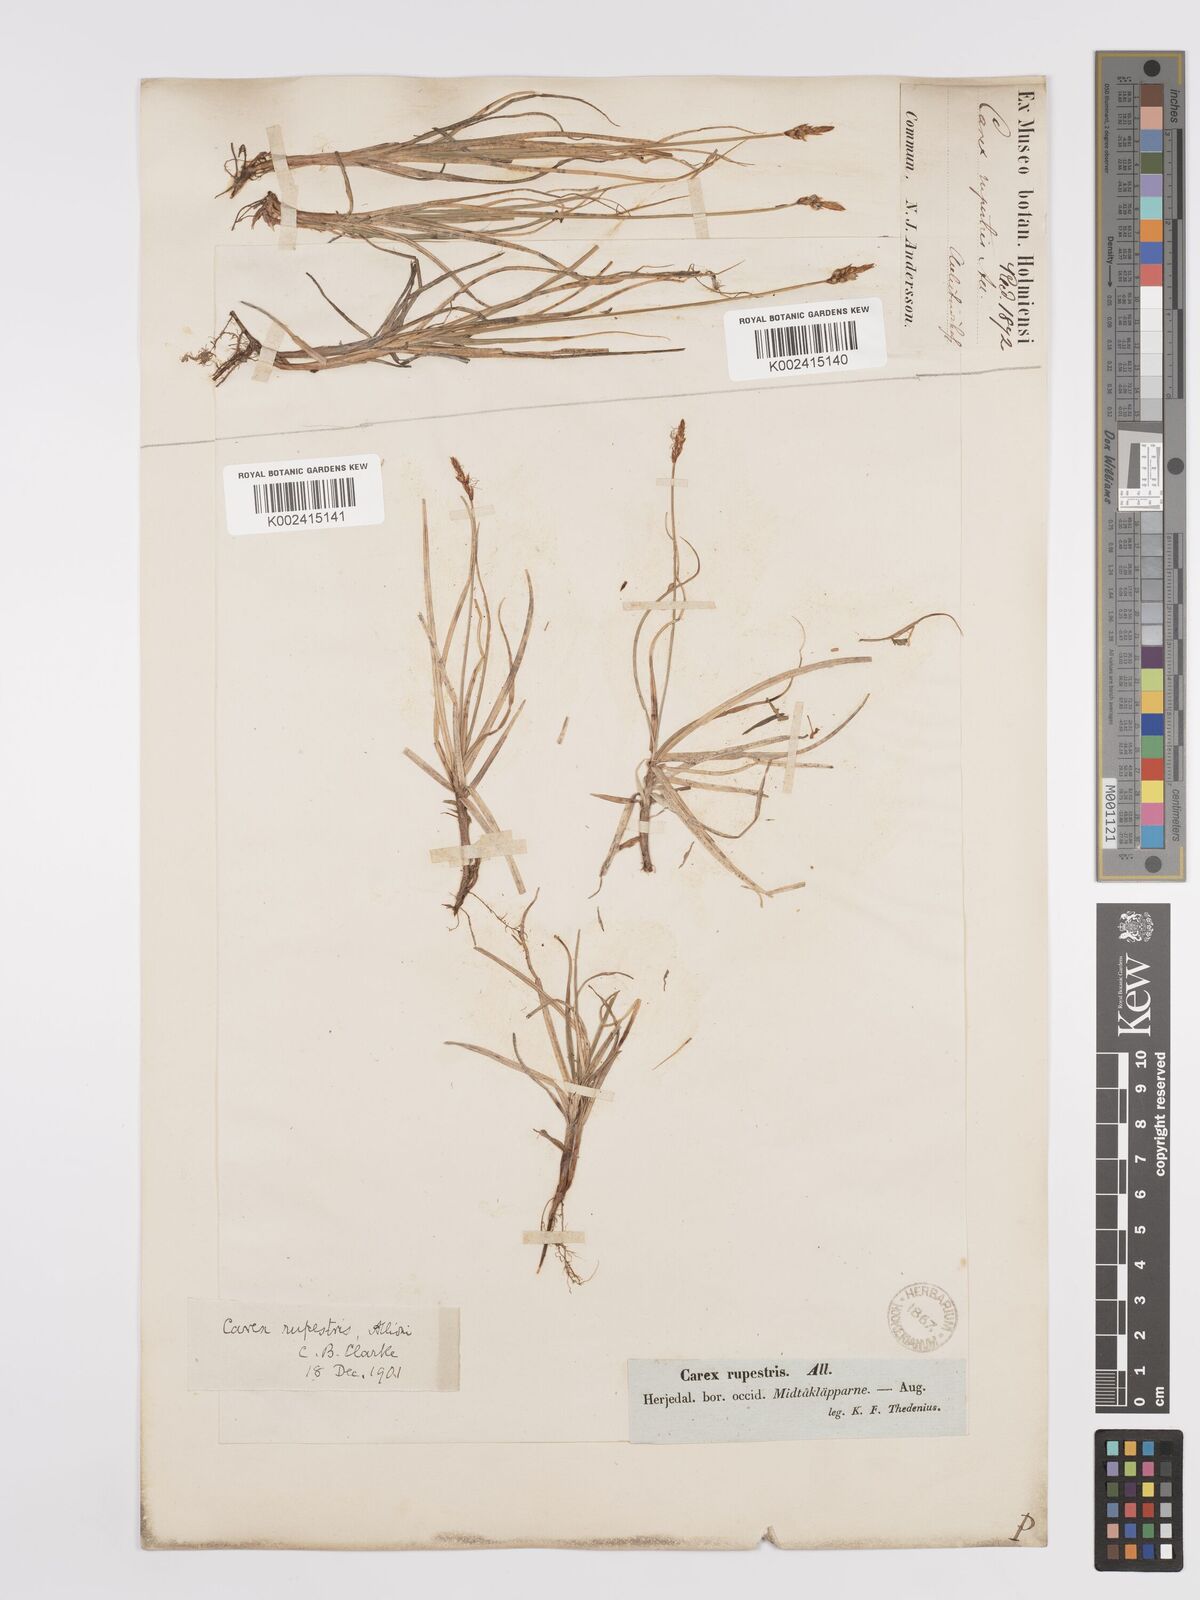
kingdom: Plantae
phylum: Tracheophyta
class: Liliopsida
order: Poales
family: Cyperaceae
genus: Carex
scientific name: Carex rupestris
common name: Rock sedge
